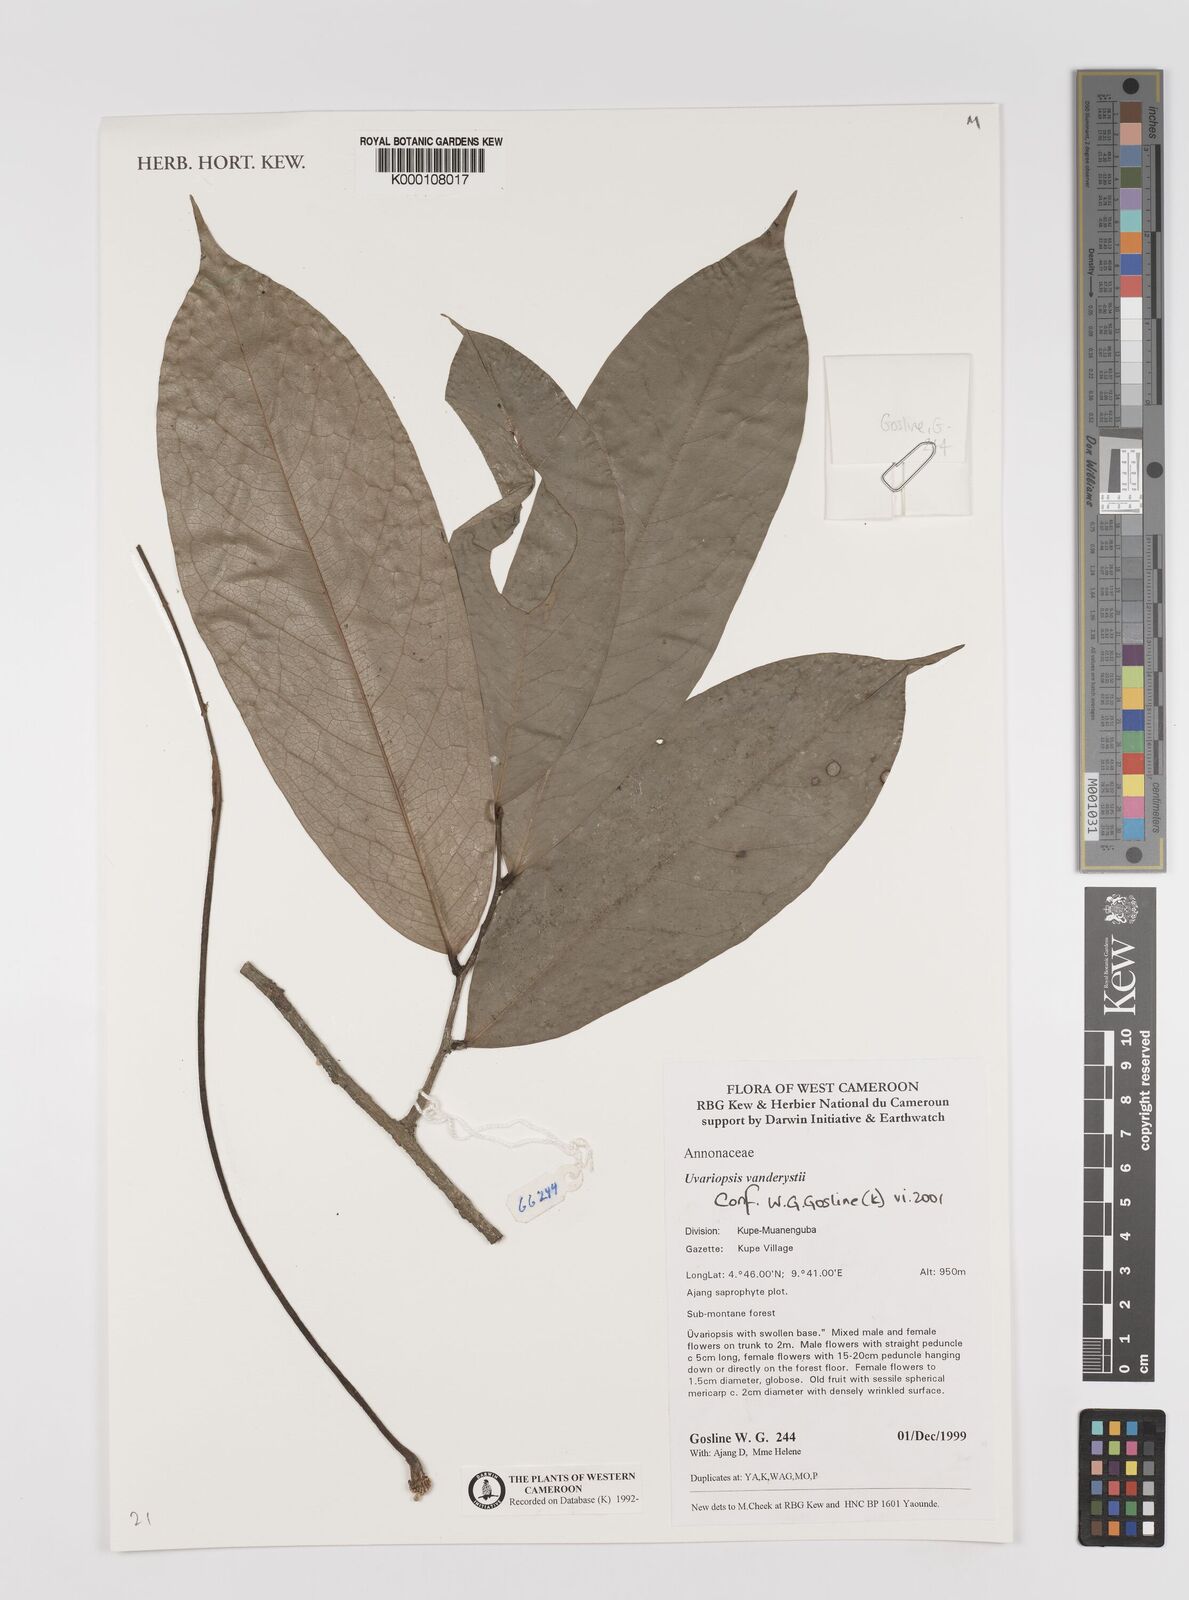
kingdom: Plantae
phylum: Tracheophyta
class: Magnoliopsida
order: Magnoliales
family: Annonaceae
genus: Uvariopsis
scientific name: Uvariopsis vanderystii
